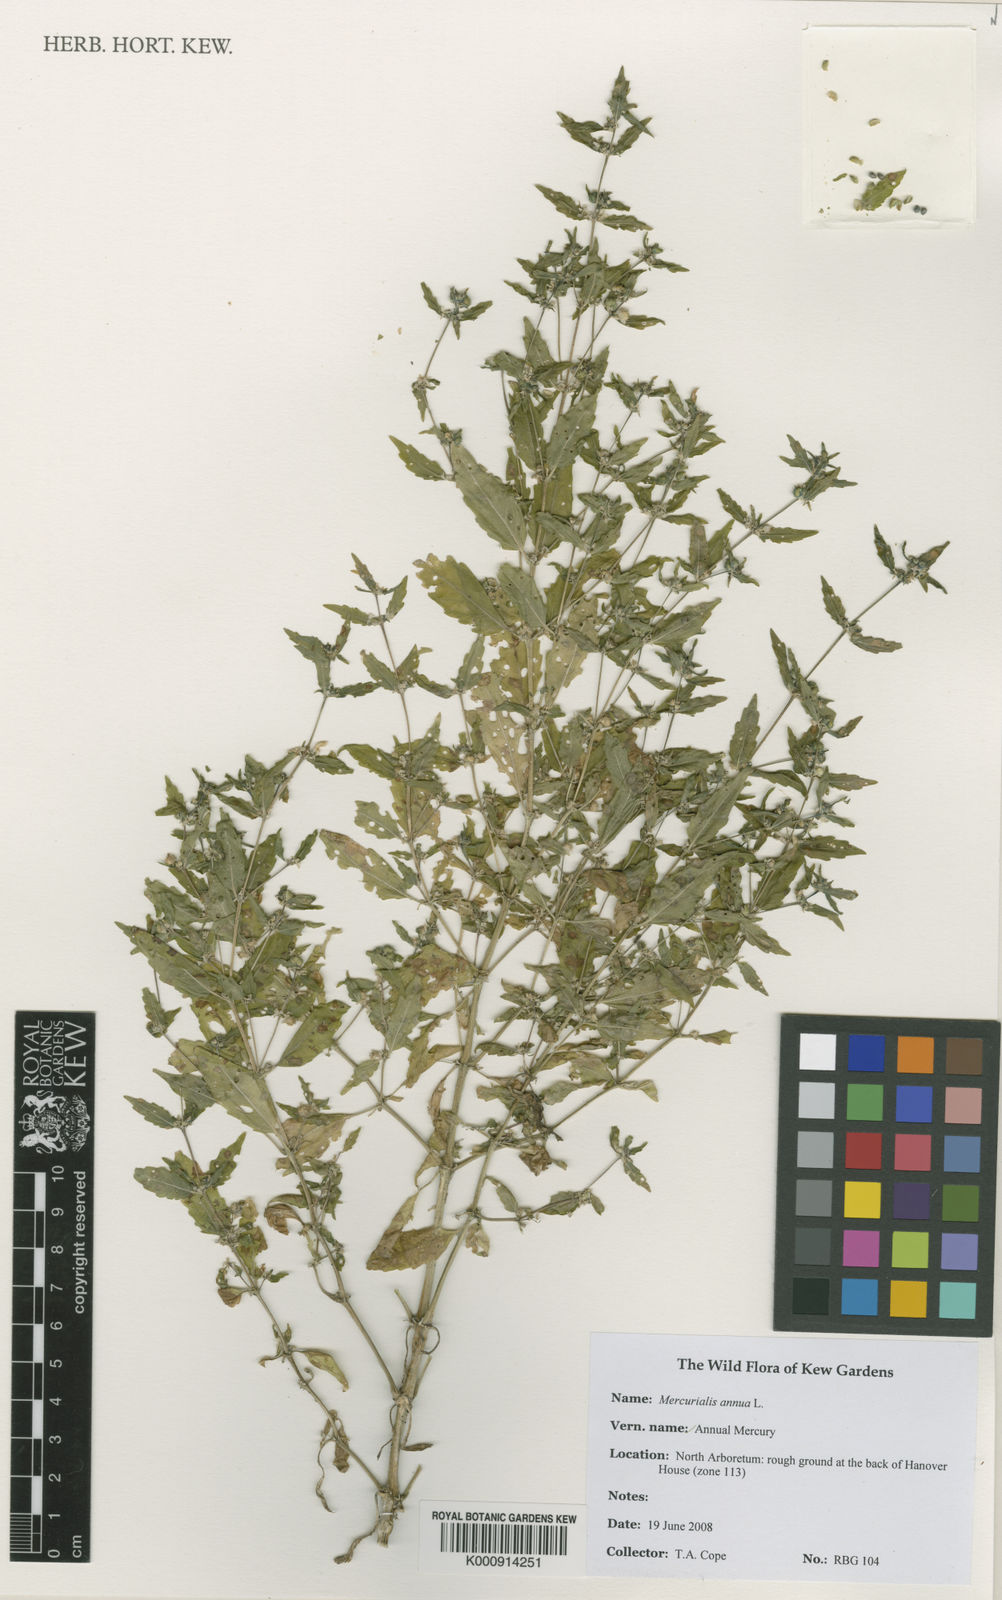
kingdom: Plantae
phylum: Tracheophyta
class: Magnoliopsida
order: Malpighiales
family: Euphorbiaceae
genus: Mercurialis
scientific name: Mercurialis annua
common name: Annual mercury
